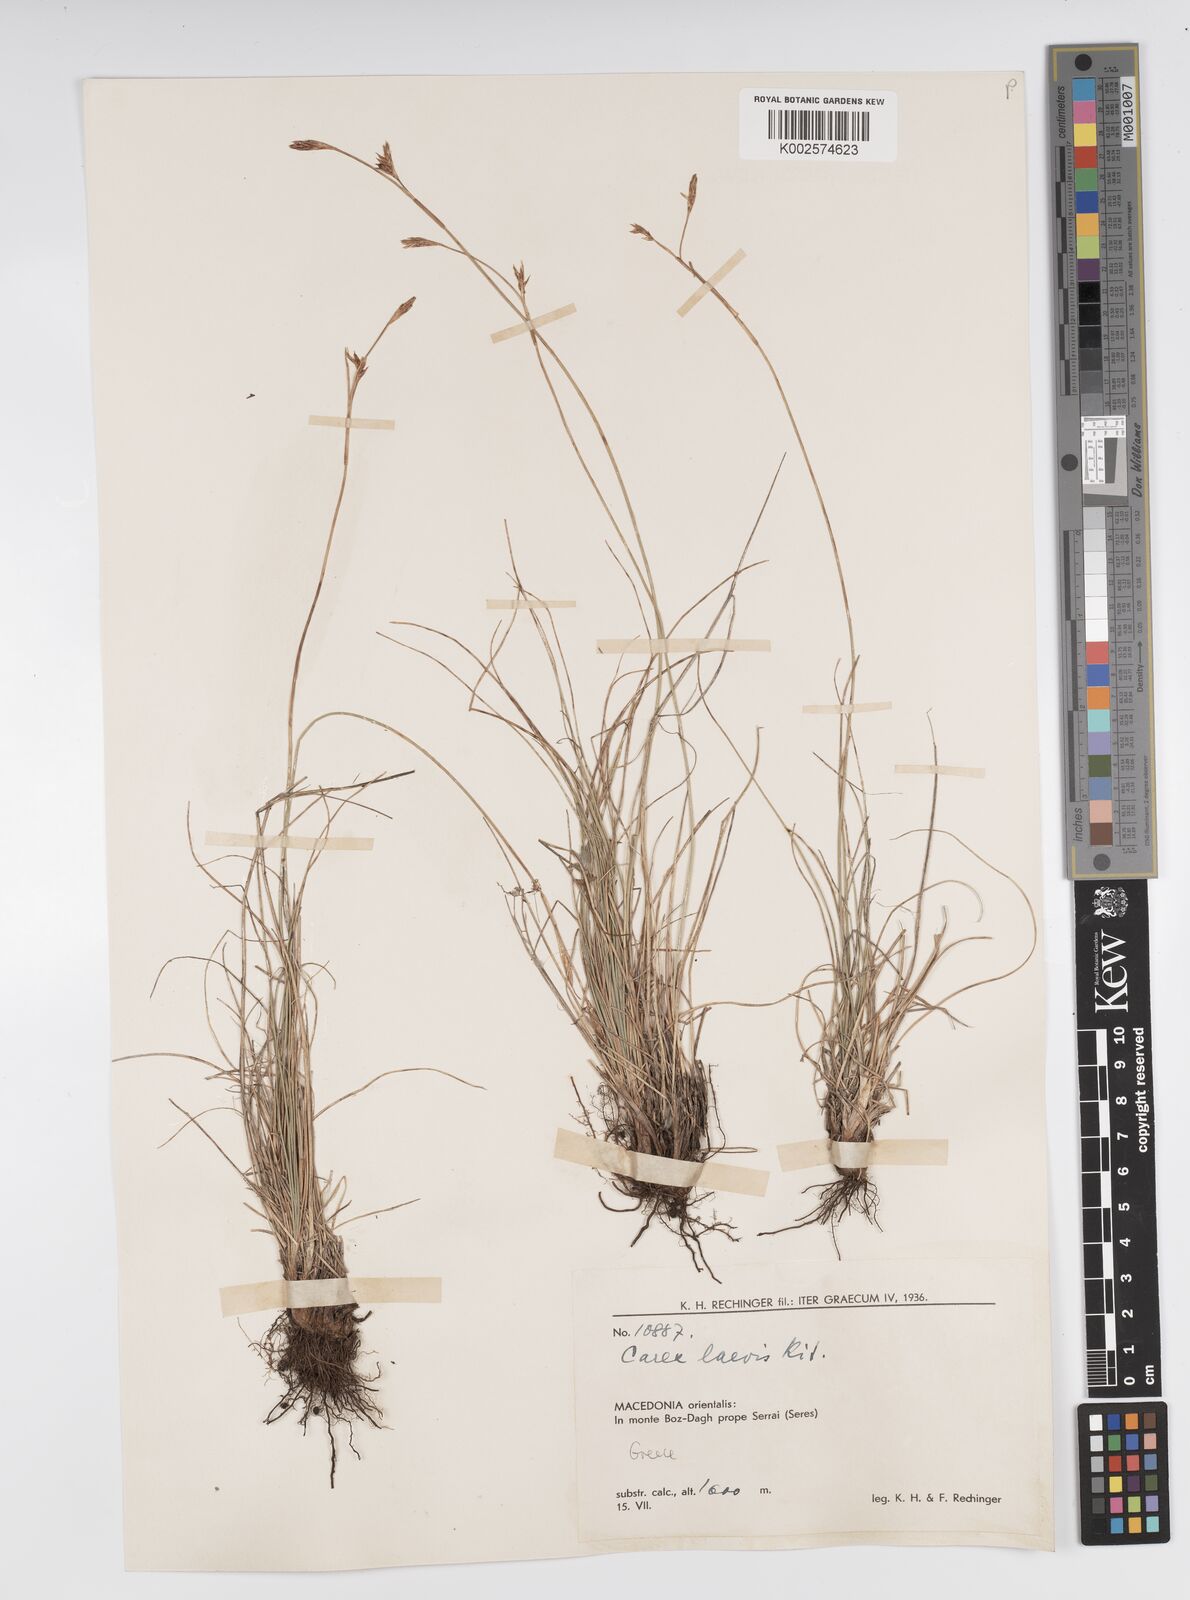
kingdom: Plantae
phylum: Tracheophyta
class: Liliopsida
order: Poales
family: Cyperaceae
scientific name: Cyperaceae
